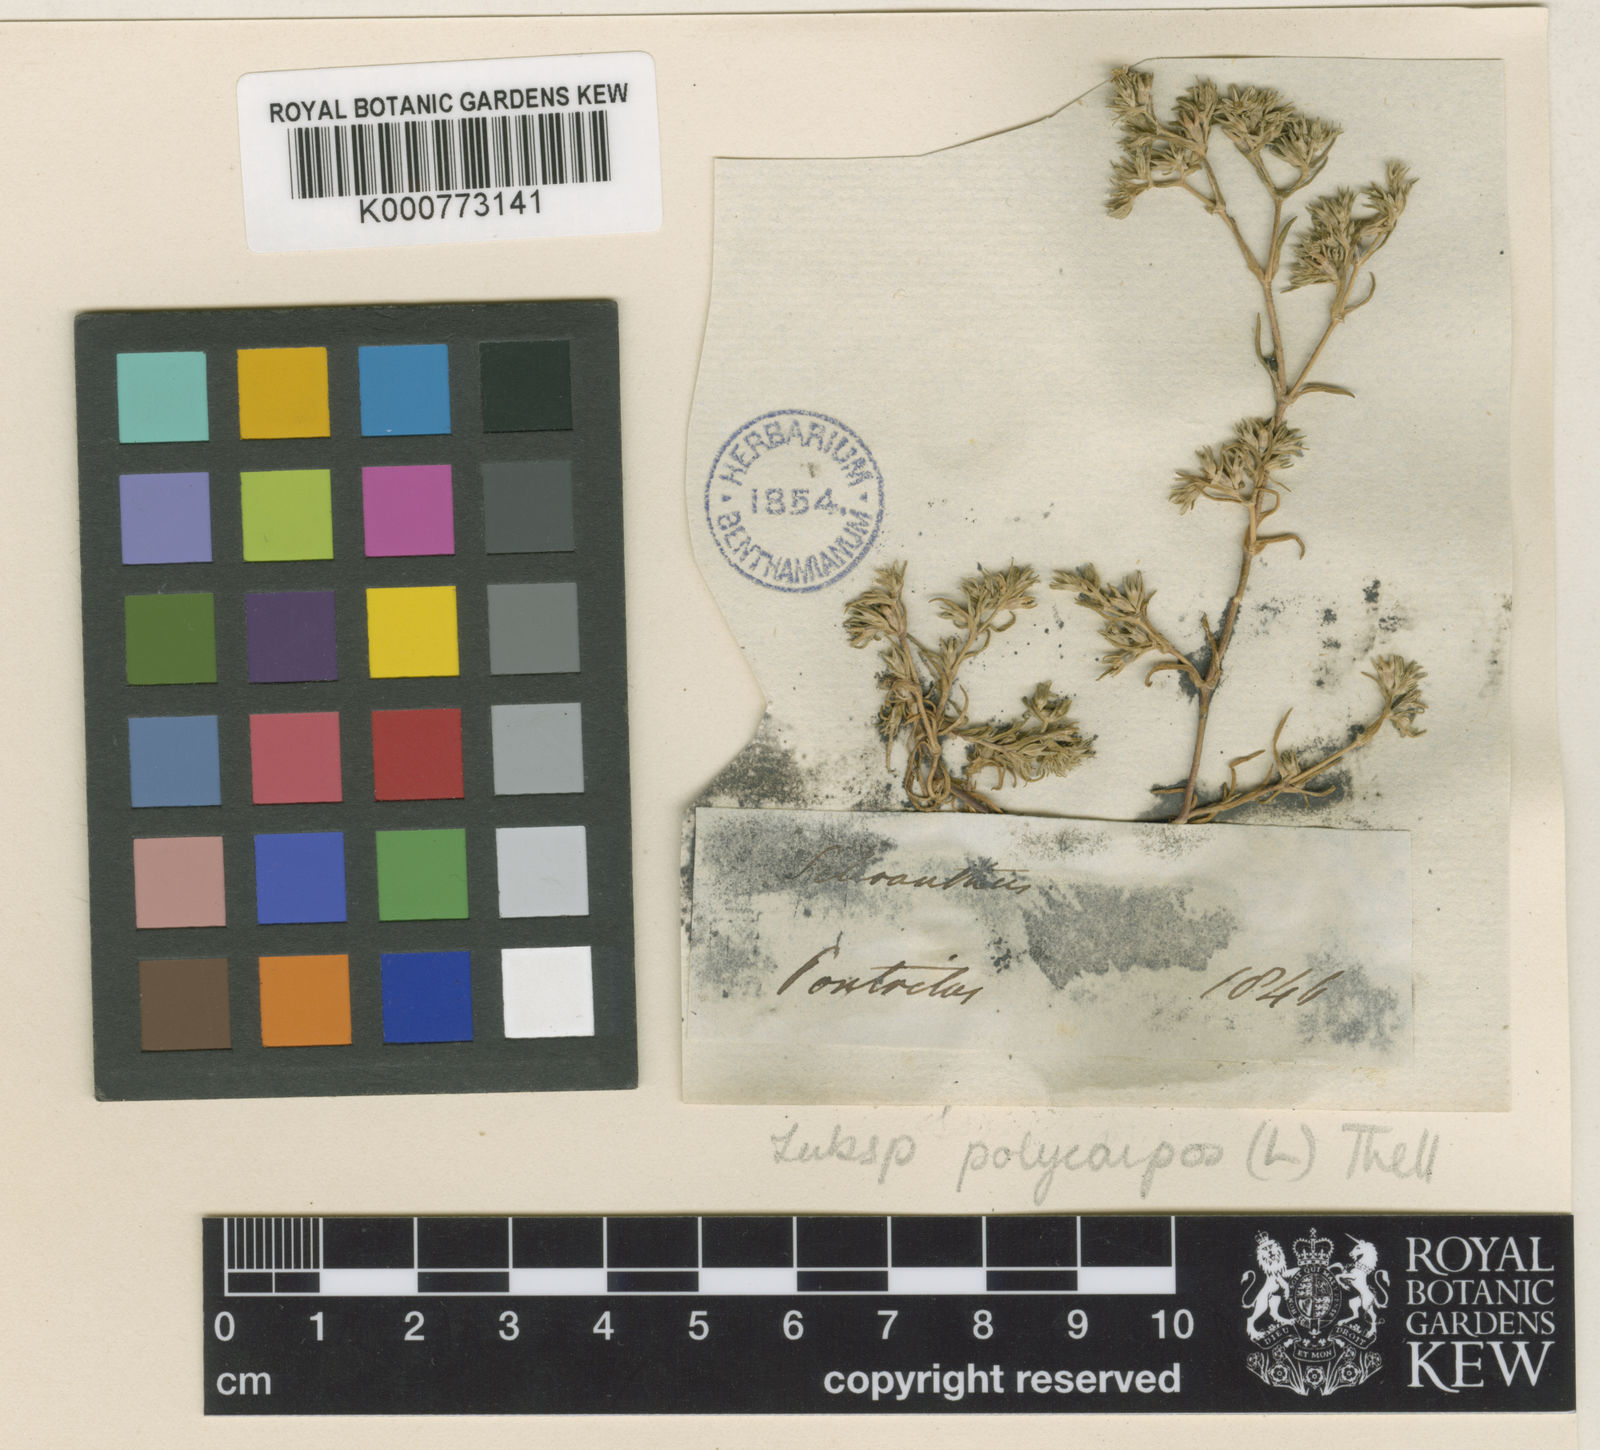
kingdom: Plantae
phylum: Tracheophyta
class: Magnoliopsida
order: Caryophyllales
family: Caryophyllaceae
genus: Scleranthus
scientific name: Scleranthus annuus
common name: Annual knawel
